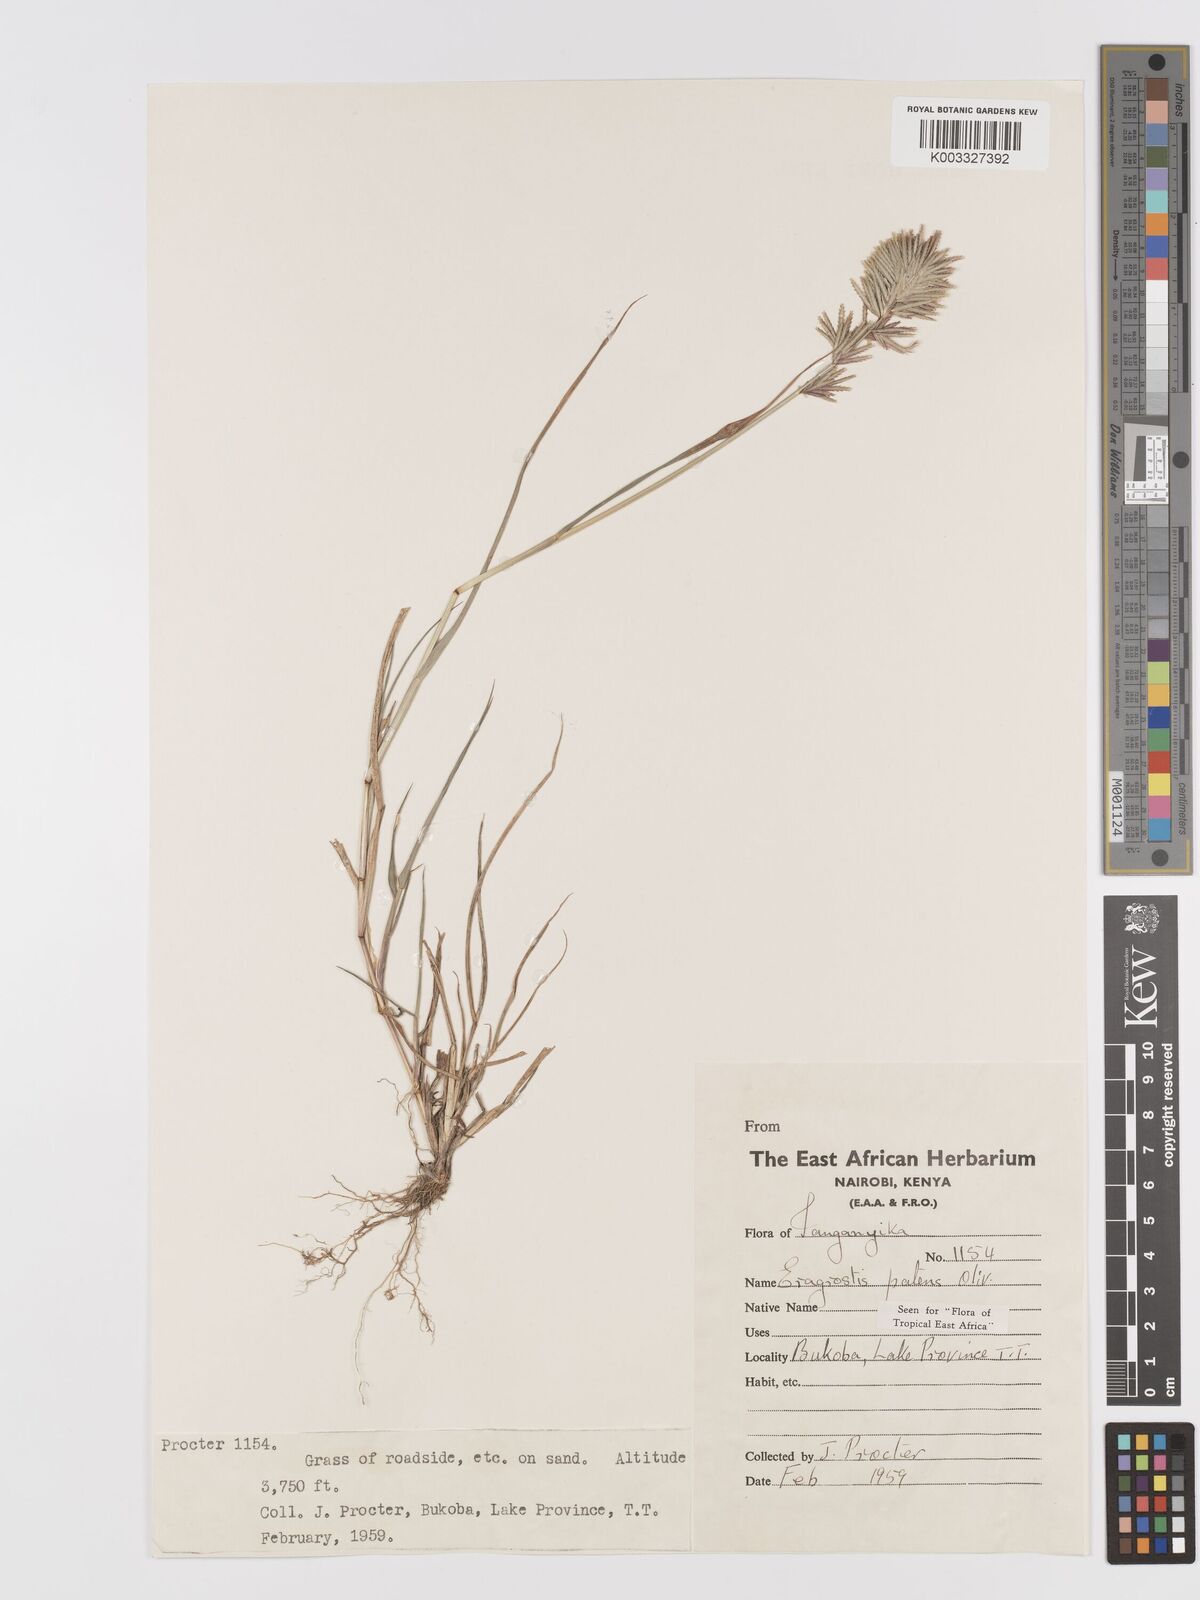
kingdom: Plantae
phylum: Tracheophyta
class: Liliopsida
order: Poales
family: Poaceae
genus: Eragrostis
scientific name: Eragrostis patens
